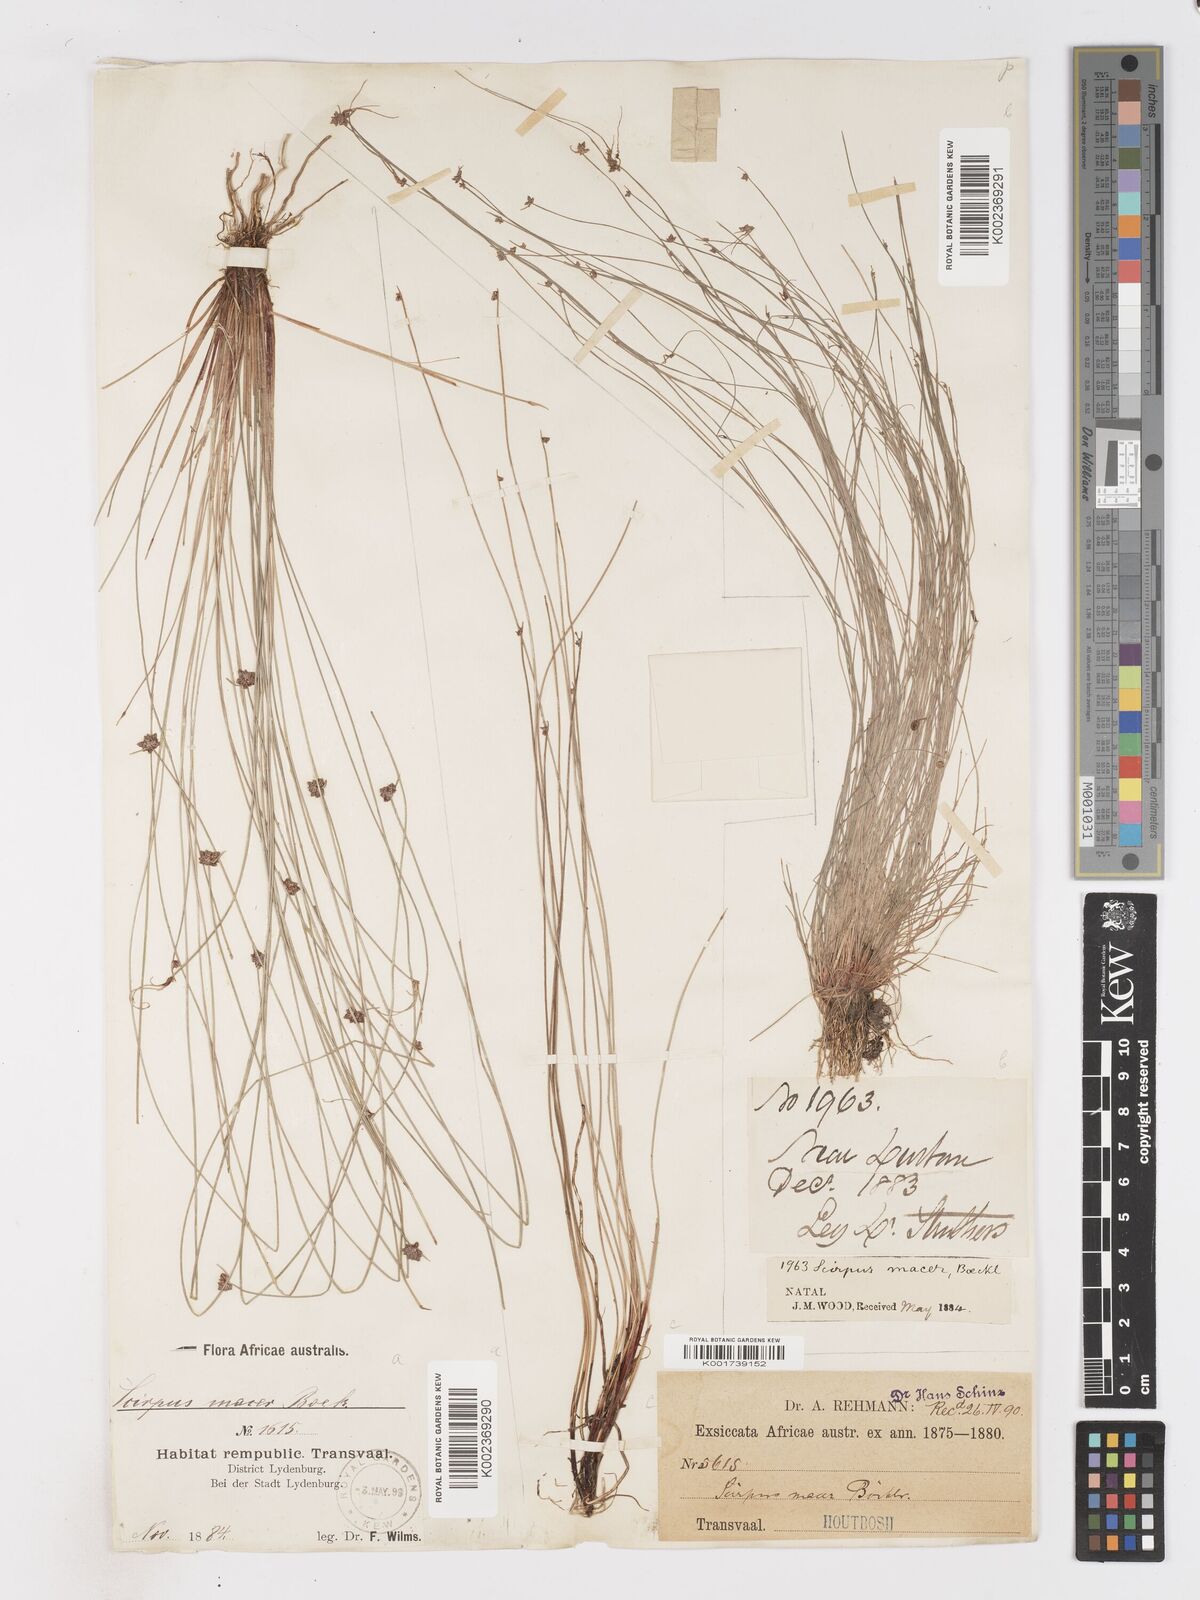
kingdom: Plantae
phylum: Tracheophyta
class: Liliopsida
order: Poales
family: Cyperaceae
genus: Isolepis
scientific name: Isolepis costata
